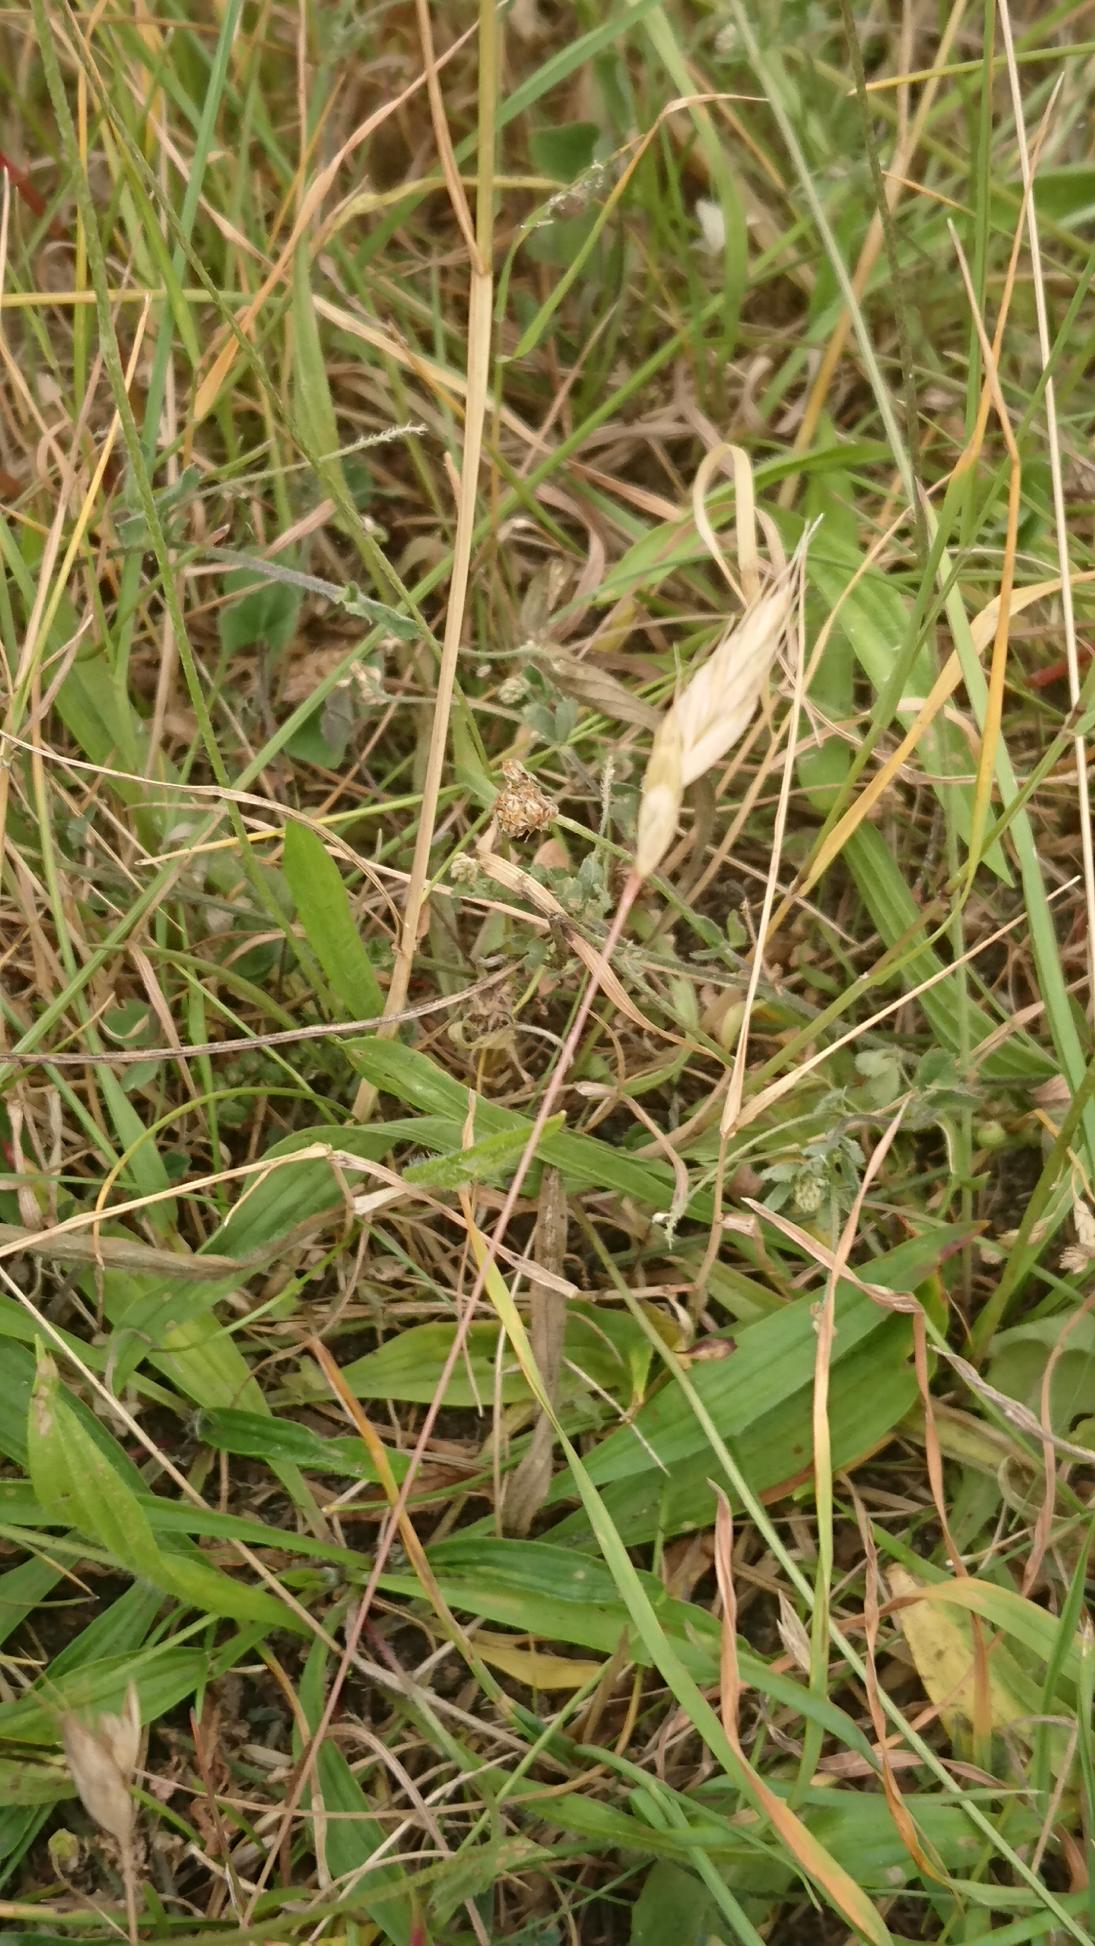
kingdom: Plantae
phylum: Tracheophyta
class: Liliopsida
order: Poales
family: Poaceae
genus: Bromus
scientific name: Bromus hordeaceus
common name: Blød hejre
